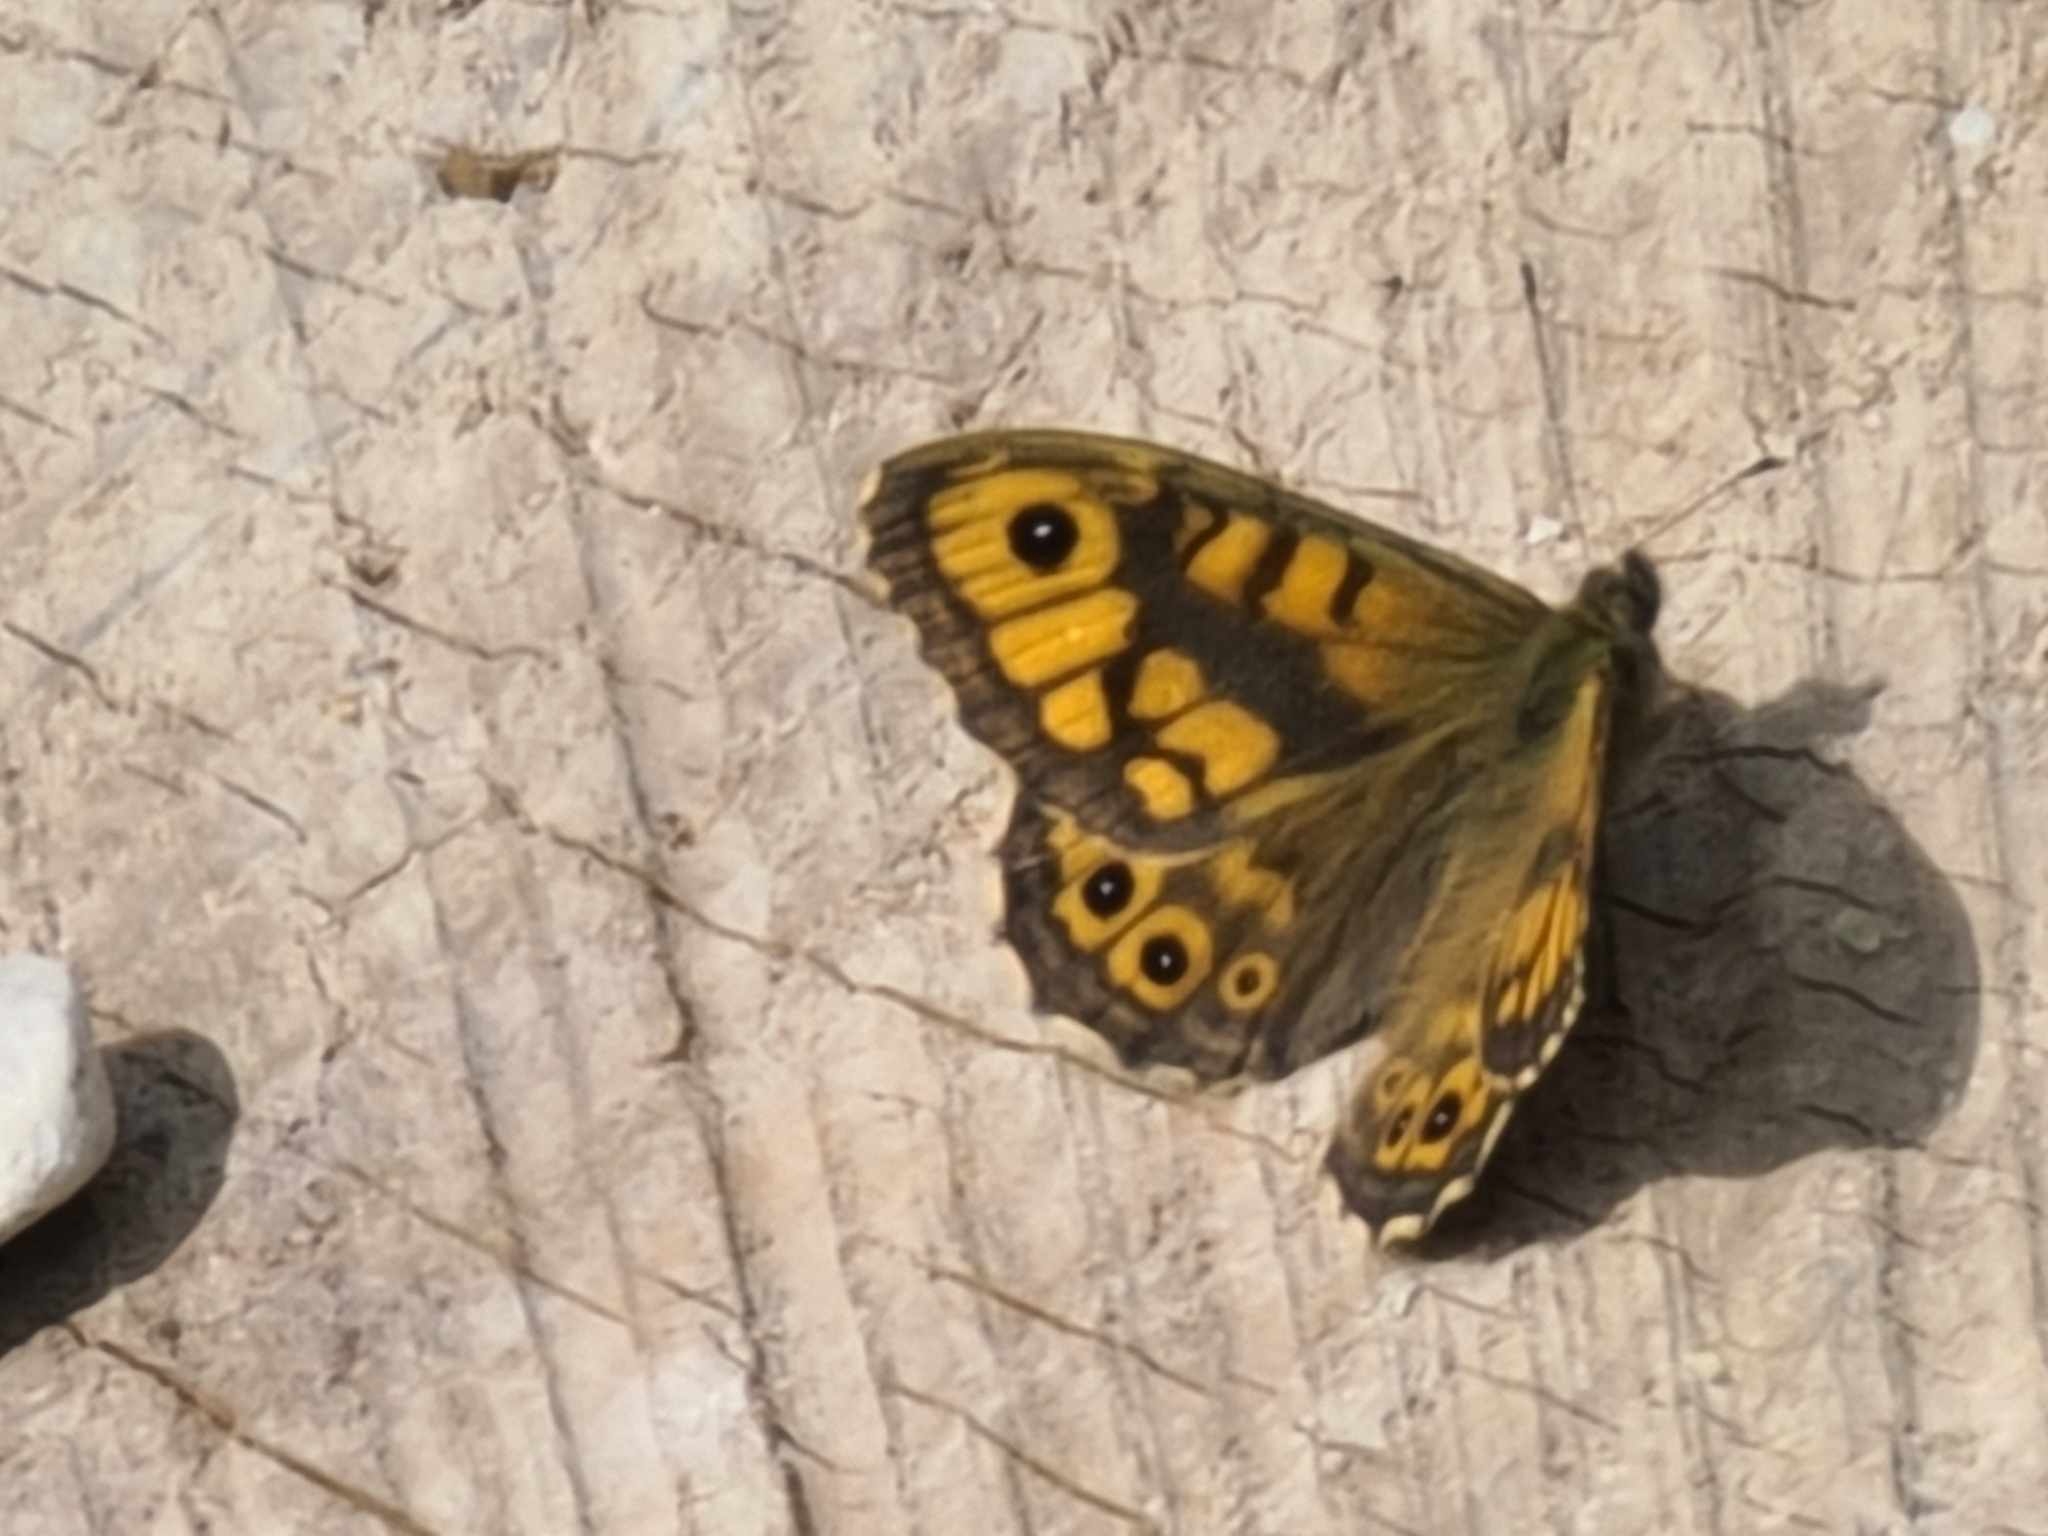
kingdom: Animalia
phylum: Arthropoda
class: Insecta
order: Lepidoptera
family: Nymphalidae
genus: Pararge
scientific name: Pararge Lasiommata megera
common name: Vejrandøje
